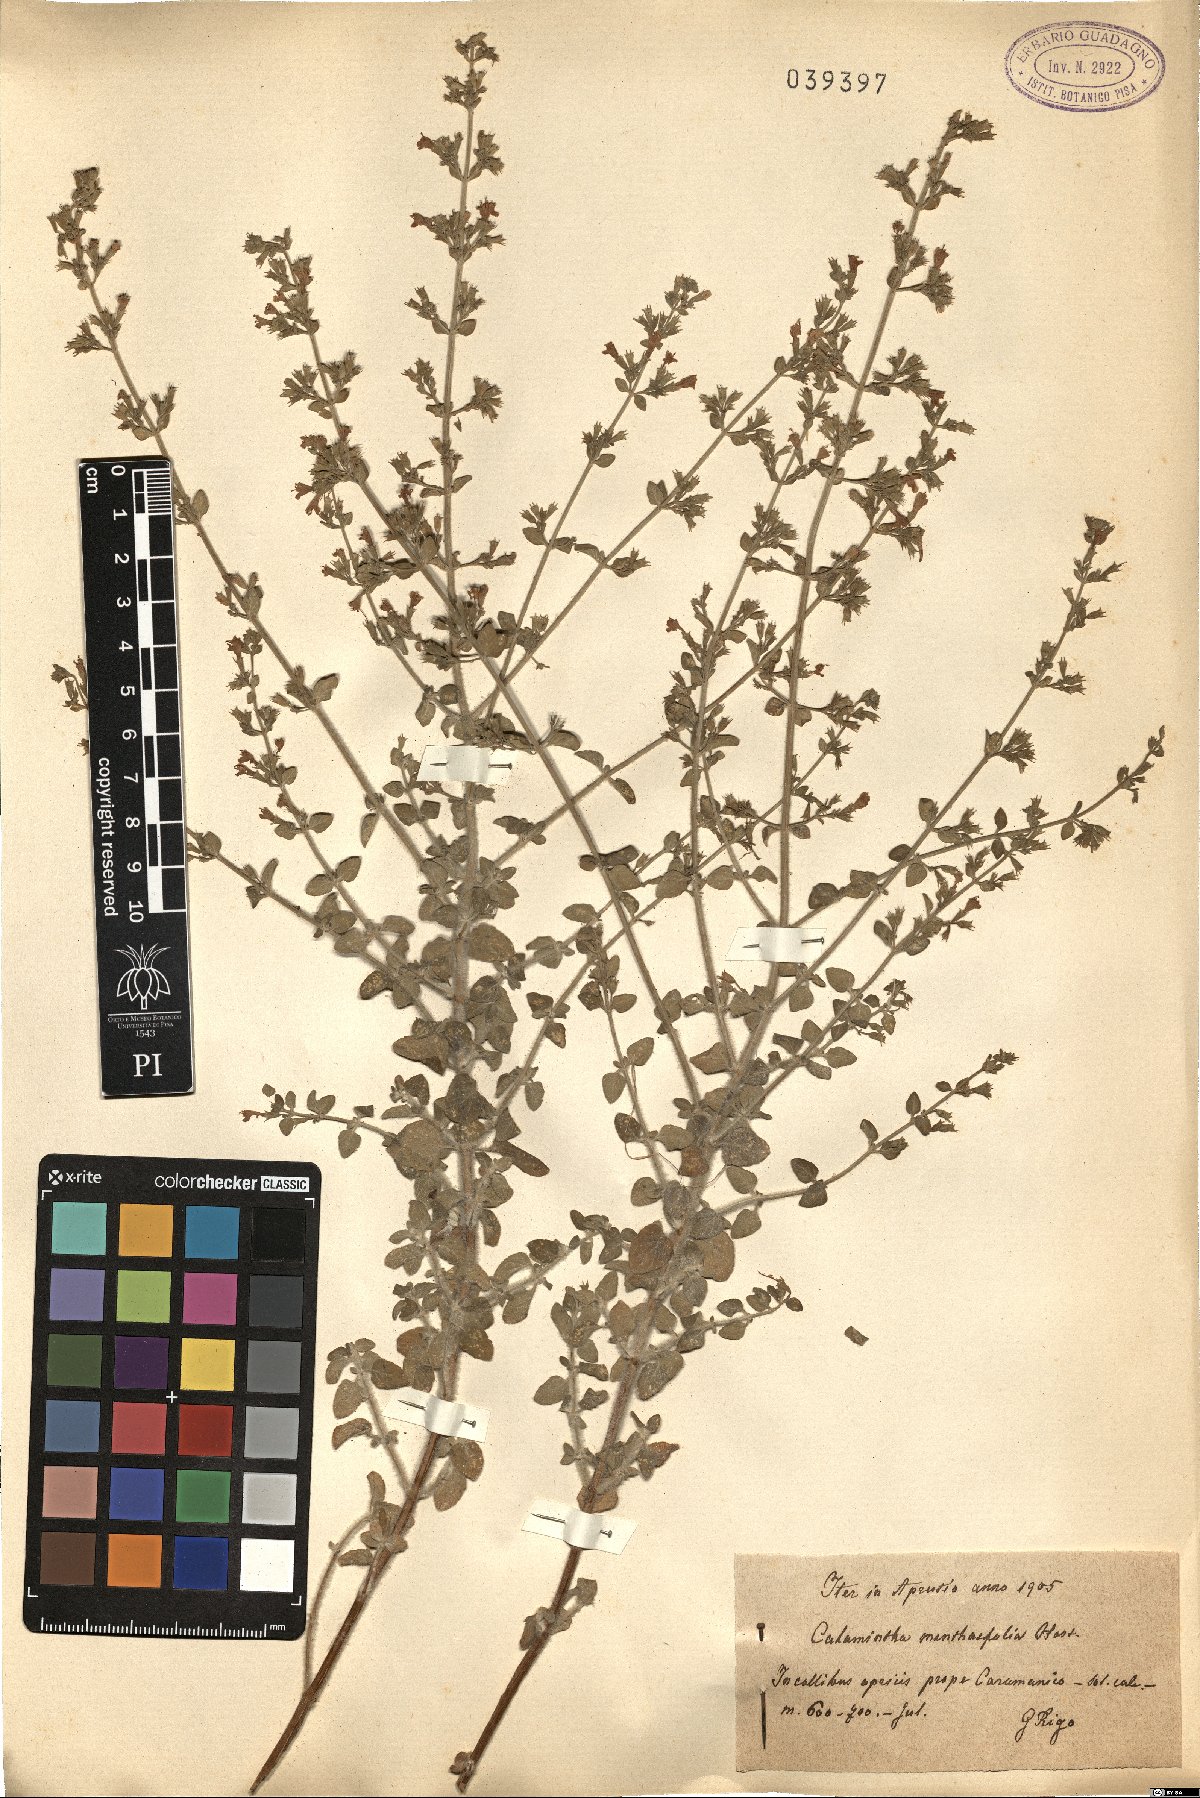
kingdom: Plantae
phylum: Tracheophyta
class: Magnoliopsida
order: Lamiales
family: Lamiaceae
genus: Clinopodium
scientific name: Clinopodium menthifolium
